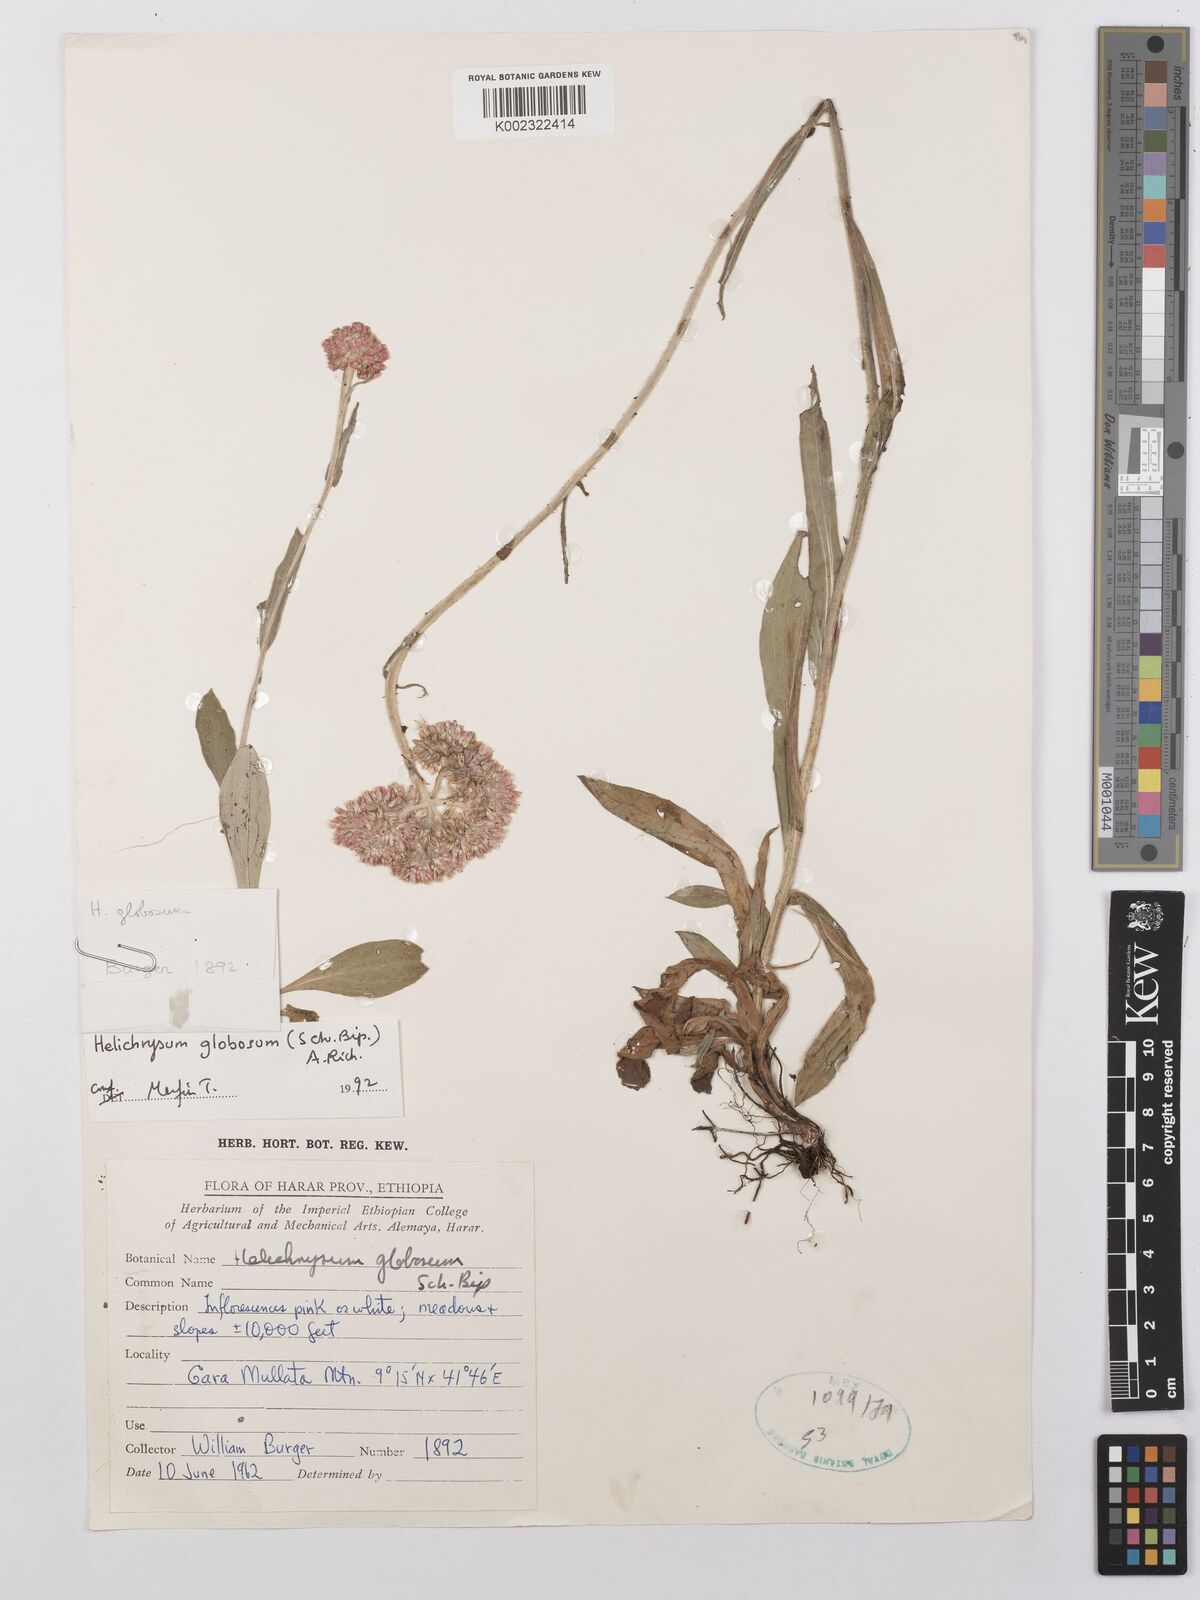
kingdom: Plantae
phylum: Tracheophyta
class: Magnoliopsida
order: Asterales
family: Asteraceae
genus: Helichrysum
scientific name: Helichrysum globosum
